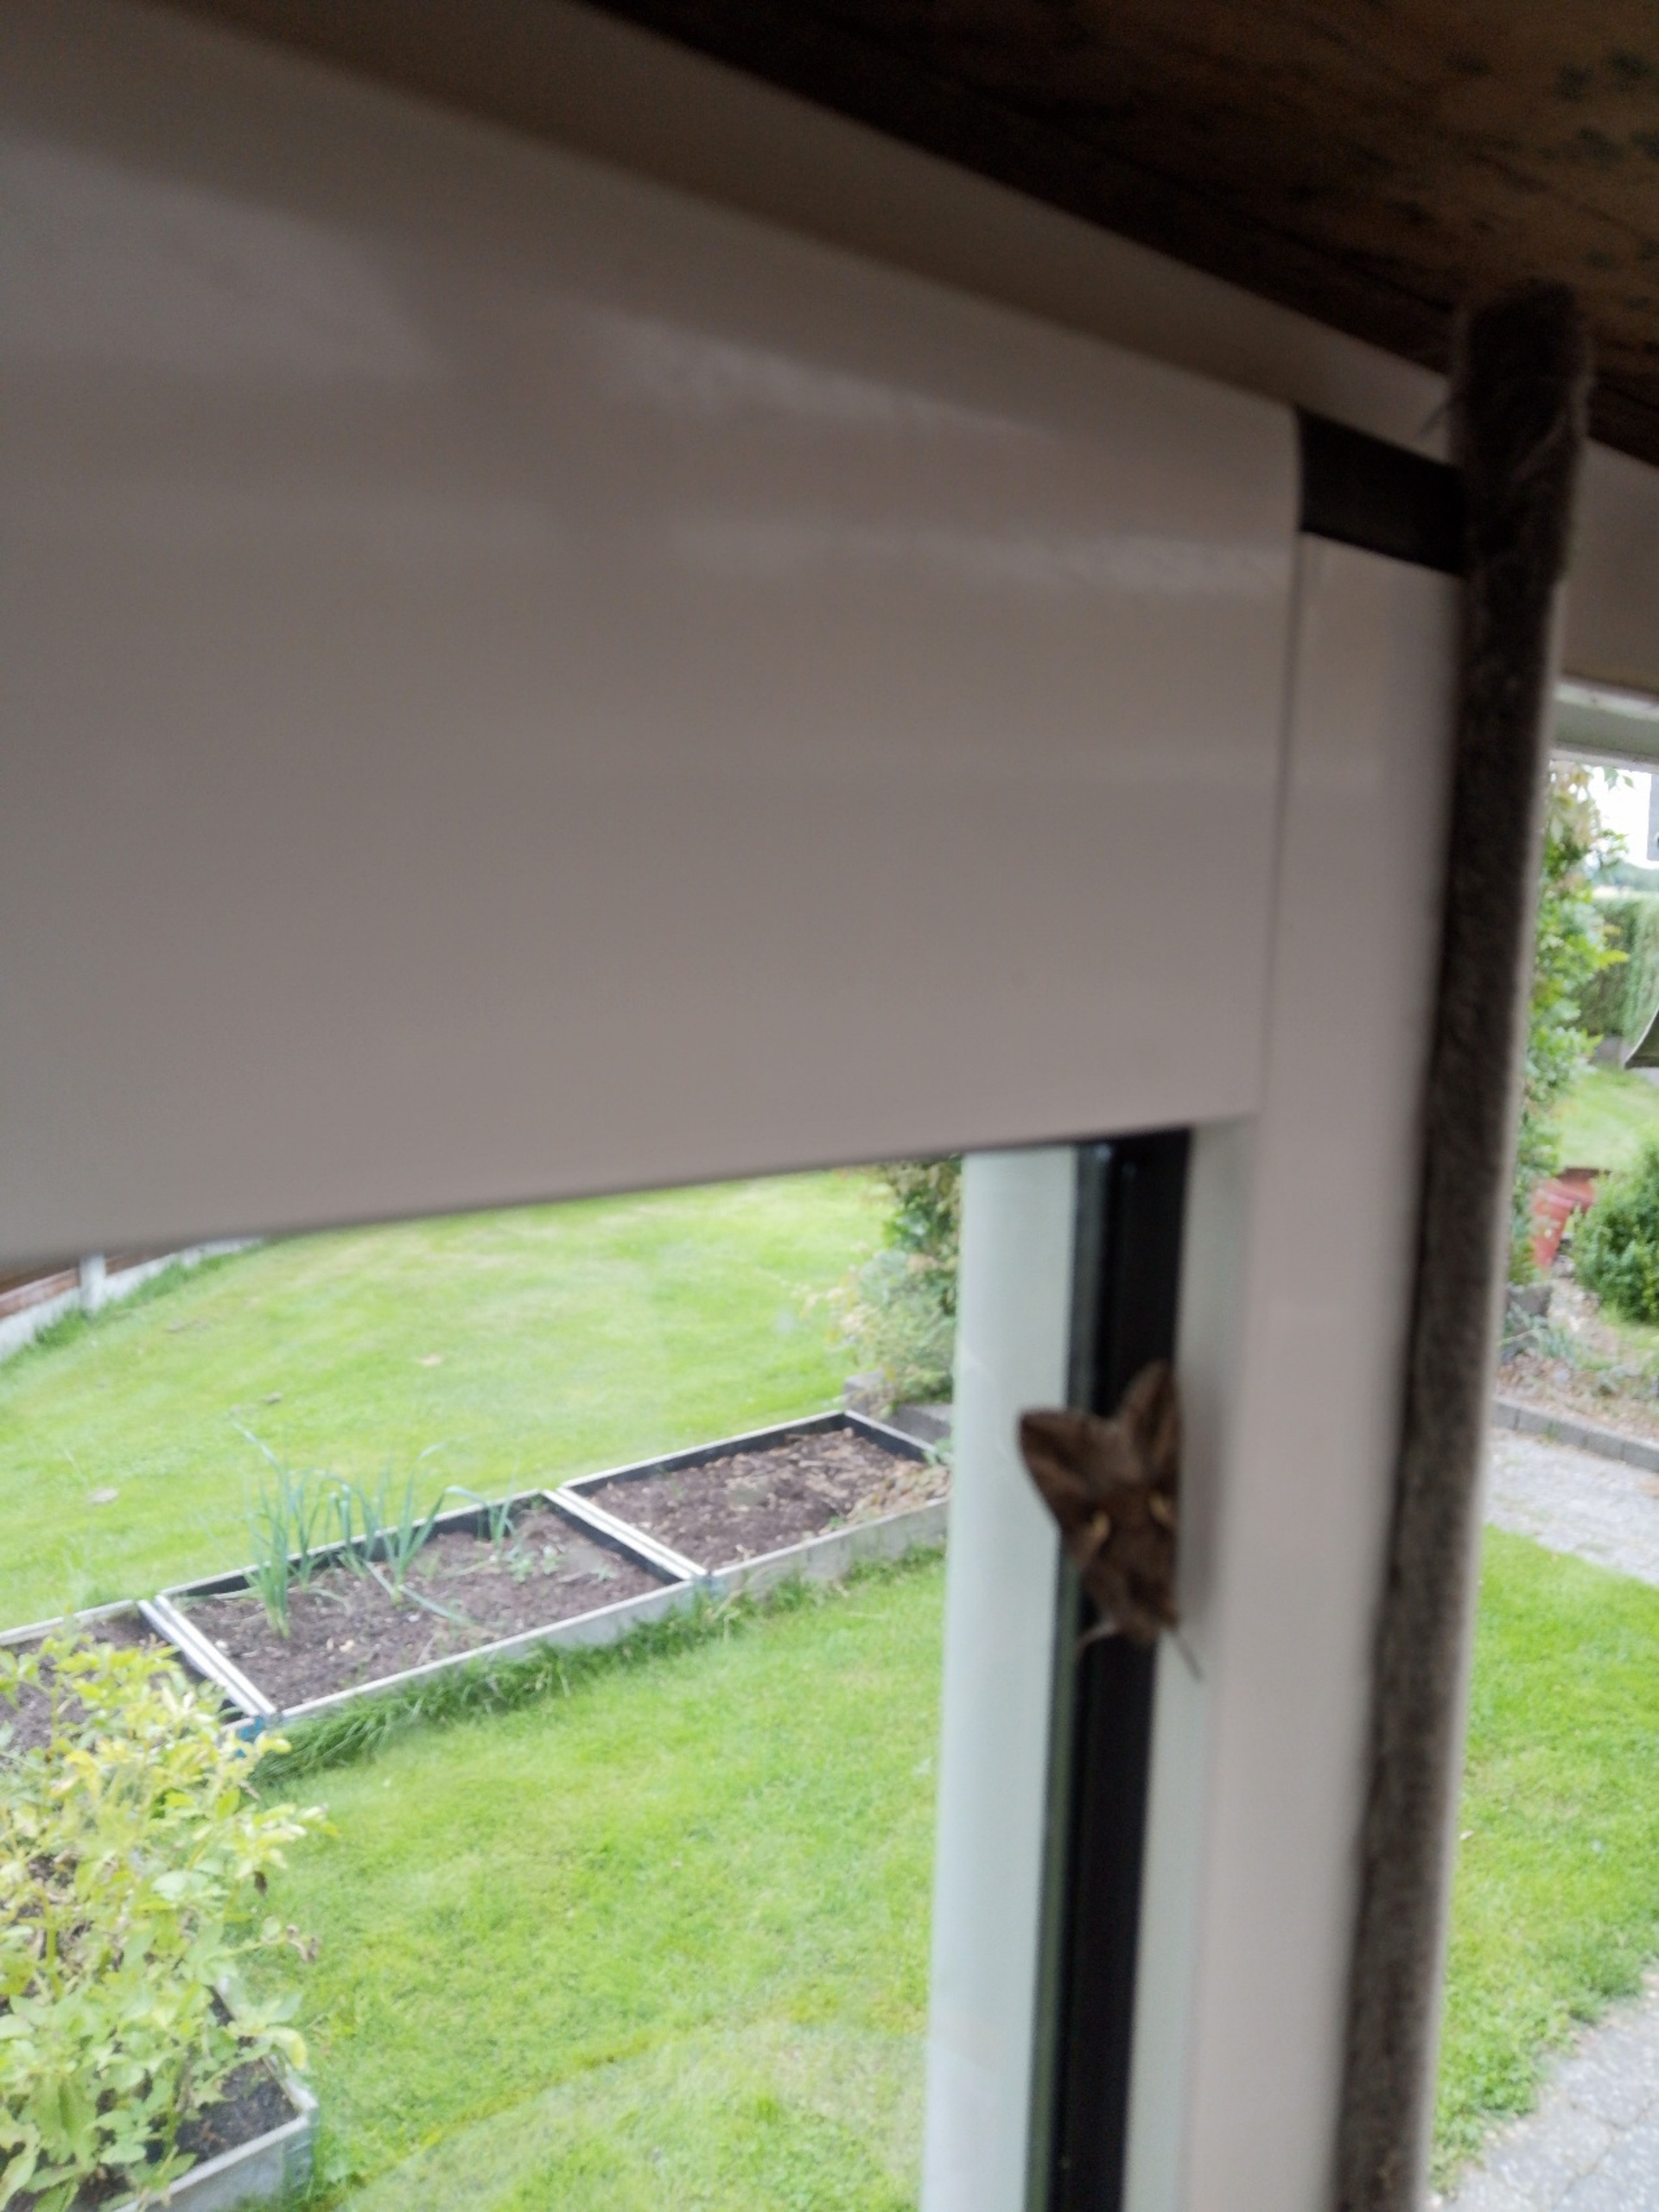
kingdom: Animalia
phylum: Arthropoda
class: Insecta
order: Lepidoptera
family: Noctuidae
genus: Autographa
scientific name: Autographa gamma
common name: Gammaugle
